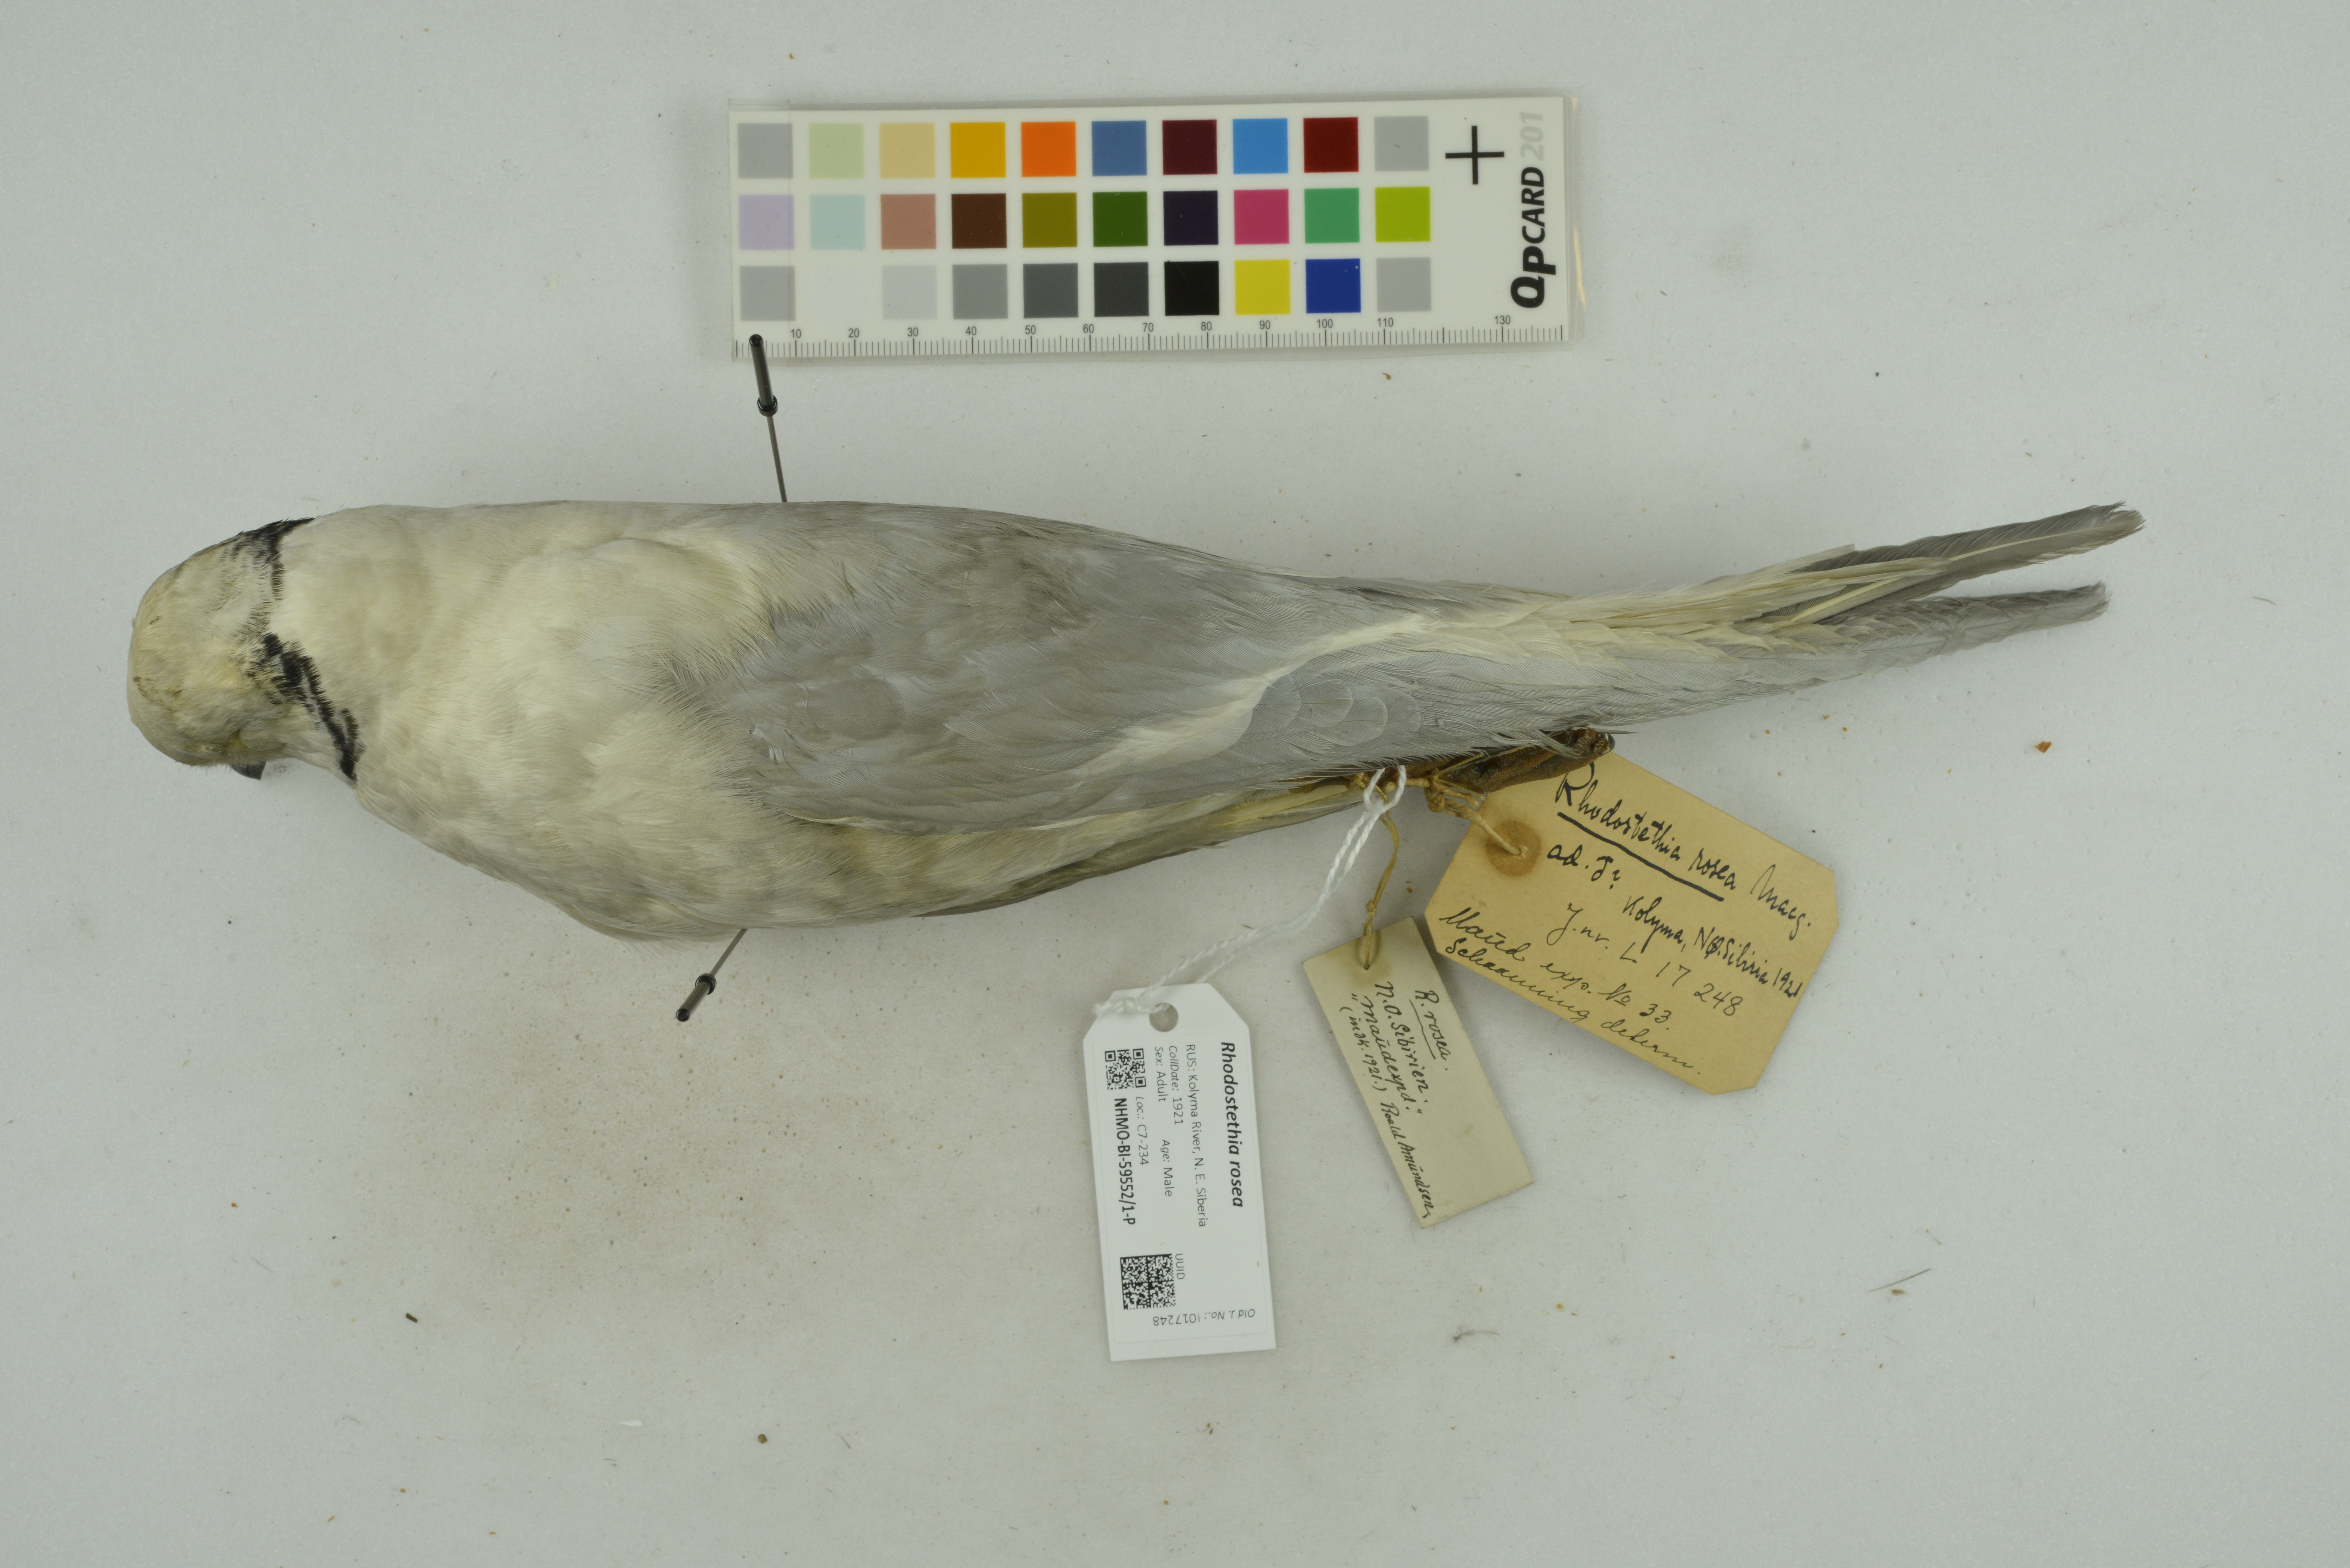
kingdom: Animalia
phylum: Chordata
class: Aves
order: Charadriiformes
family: Laridae
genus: Rhodostethia
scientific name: Rhodostethia rosea
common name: Ross's gull
